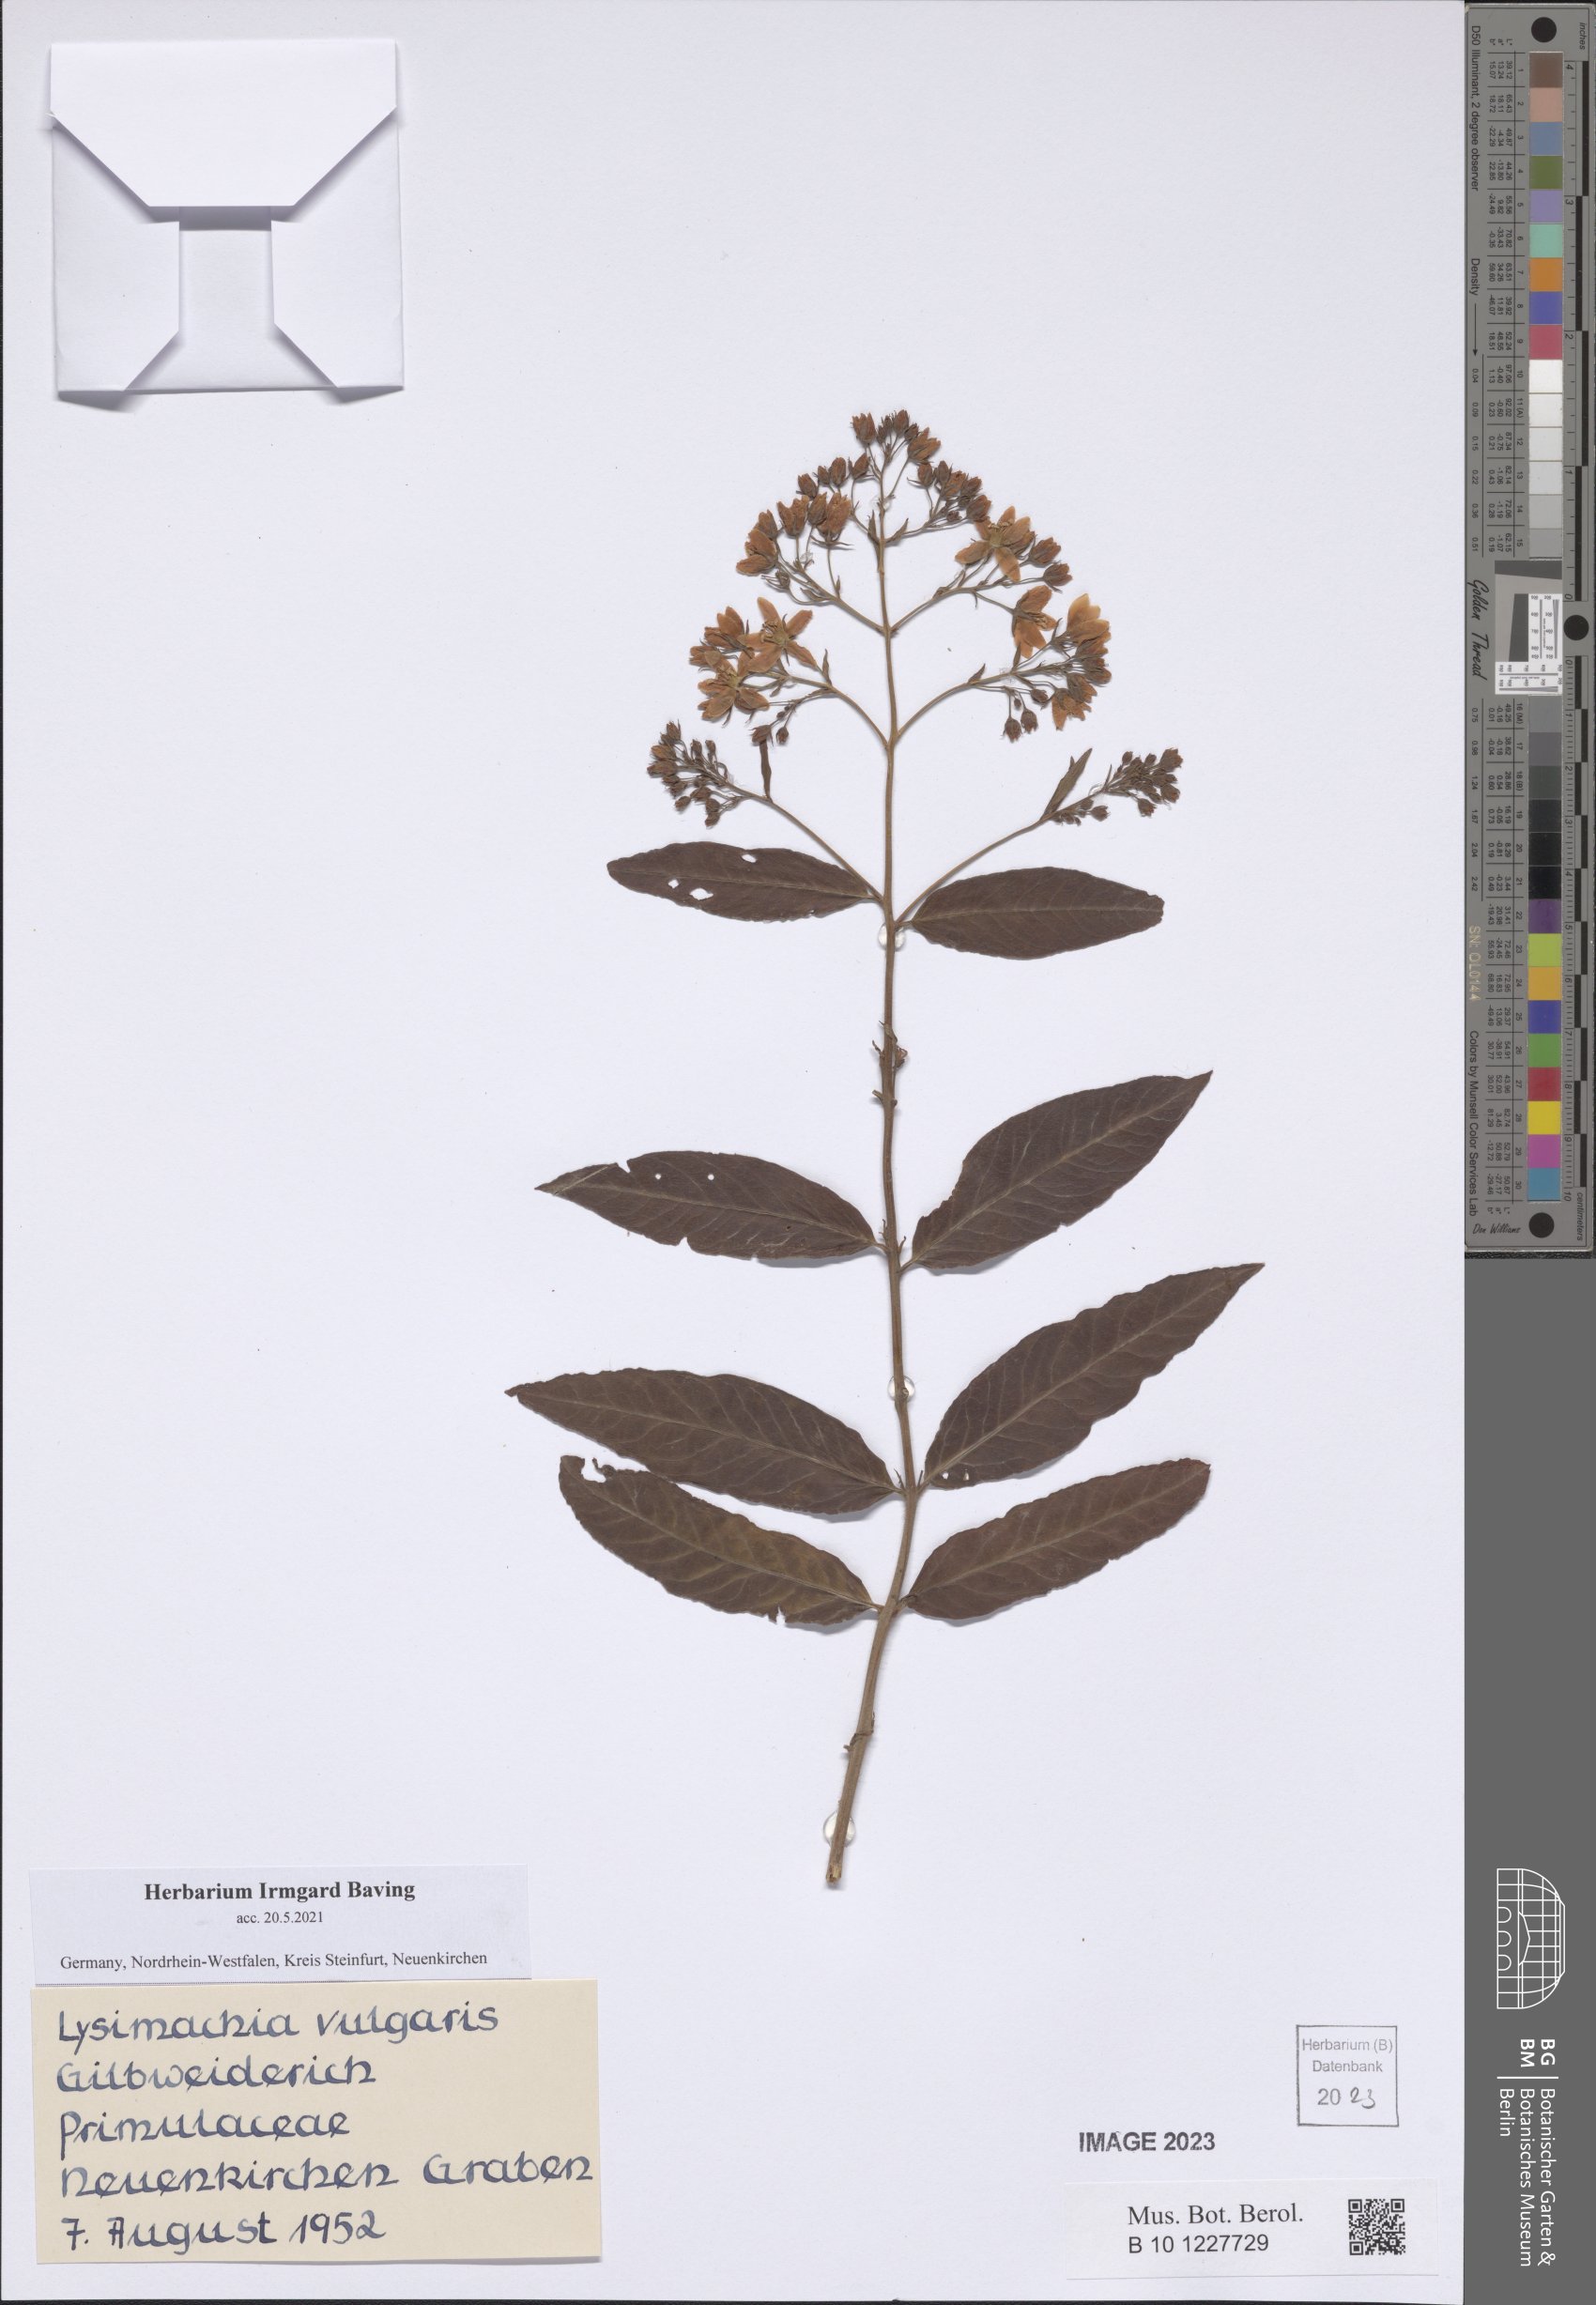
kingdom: Plantae
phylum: Tracheophyta
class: Magnoliopsida
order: Ericales
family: Primulaceae
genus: Lysimachia
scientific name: Lysimachia vulgaris
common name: Yellow loosestrife
